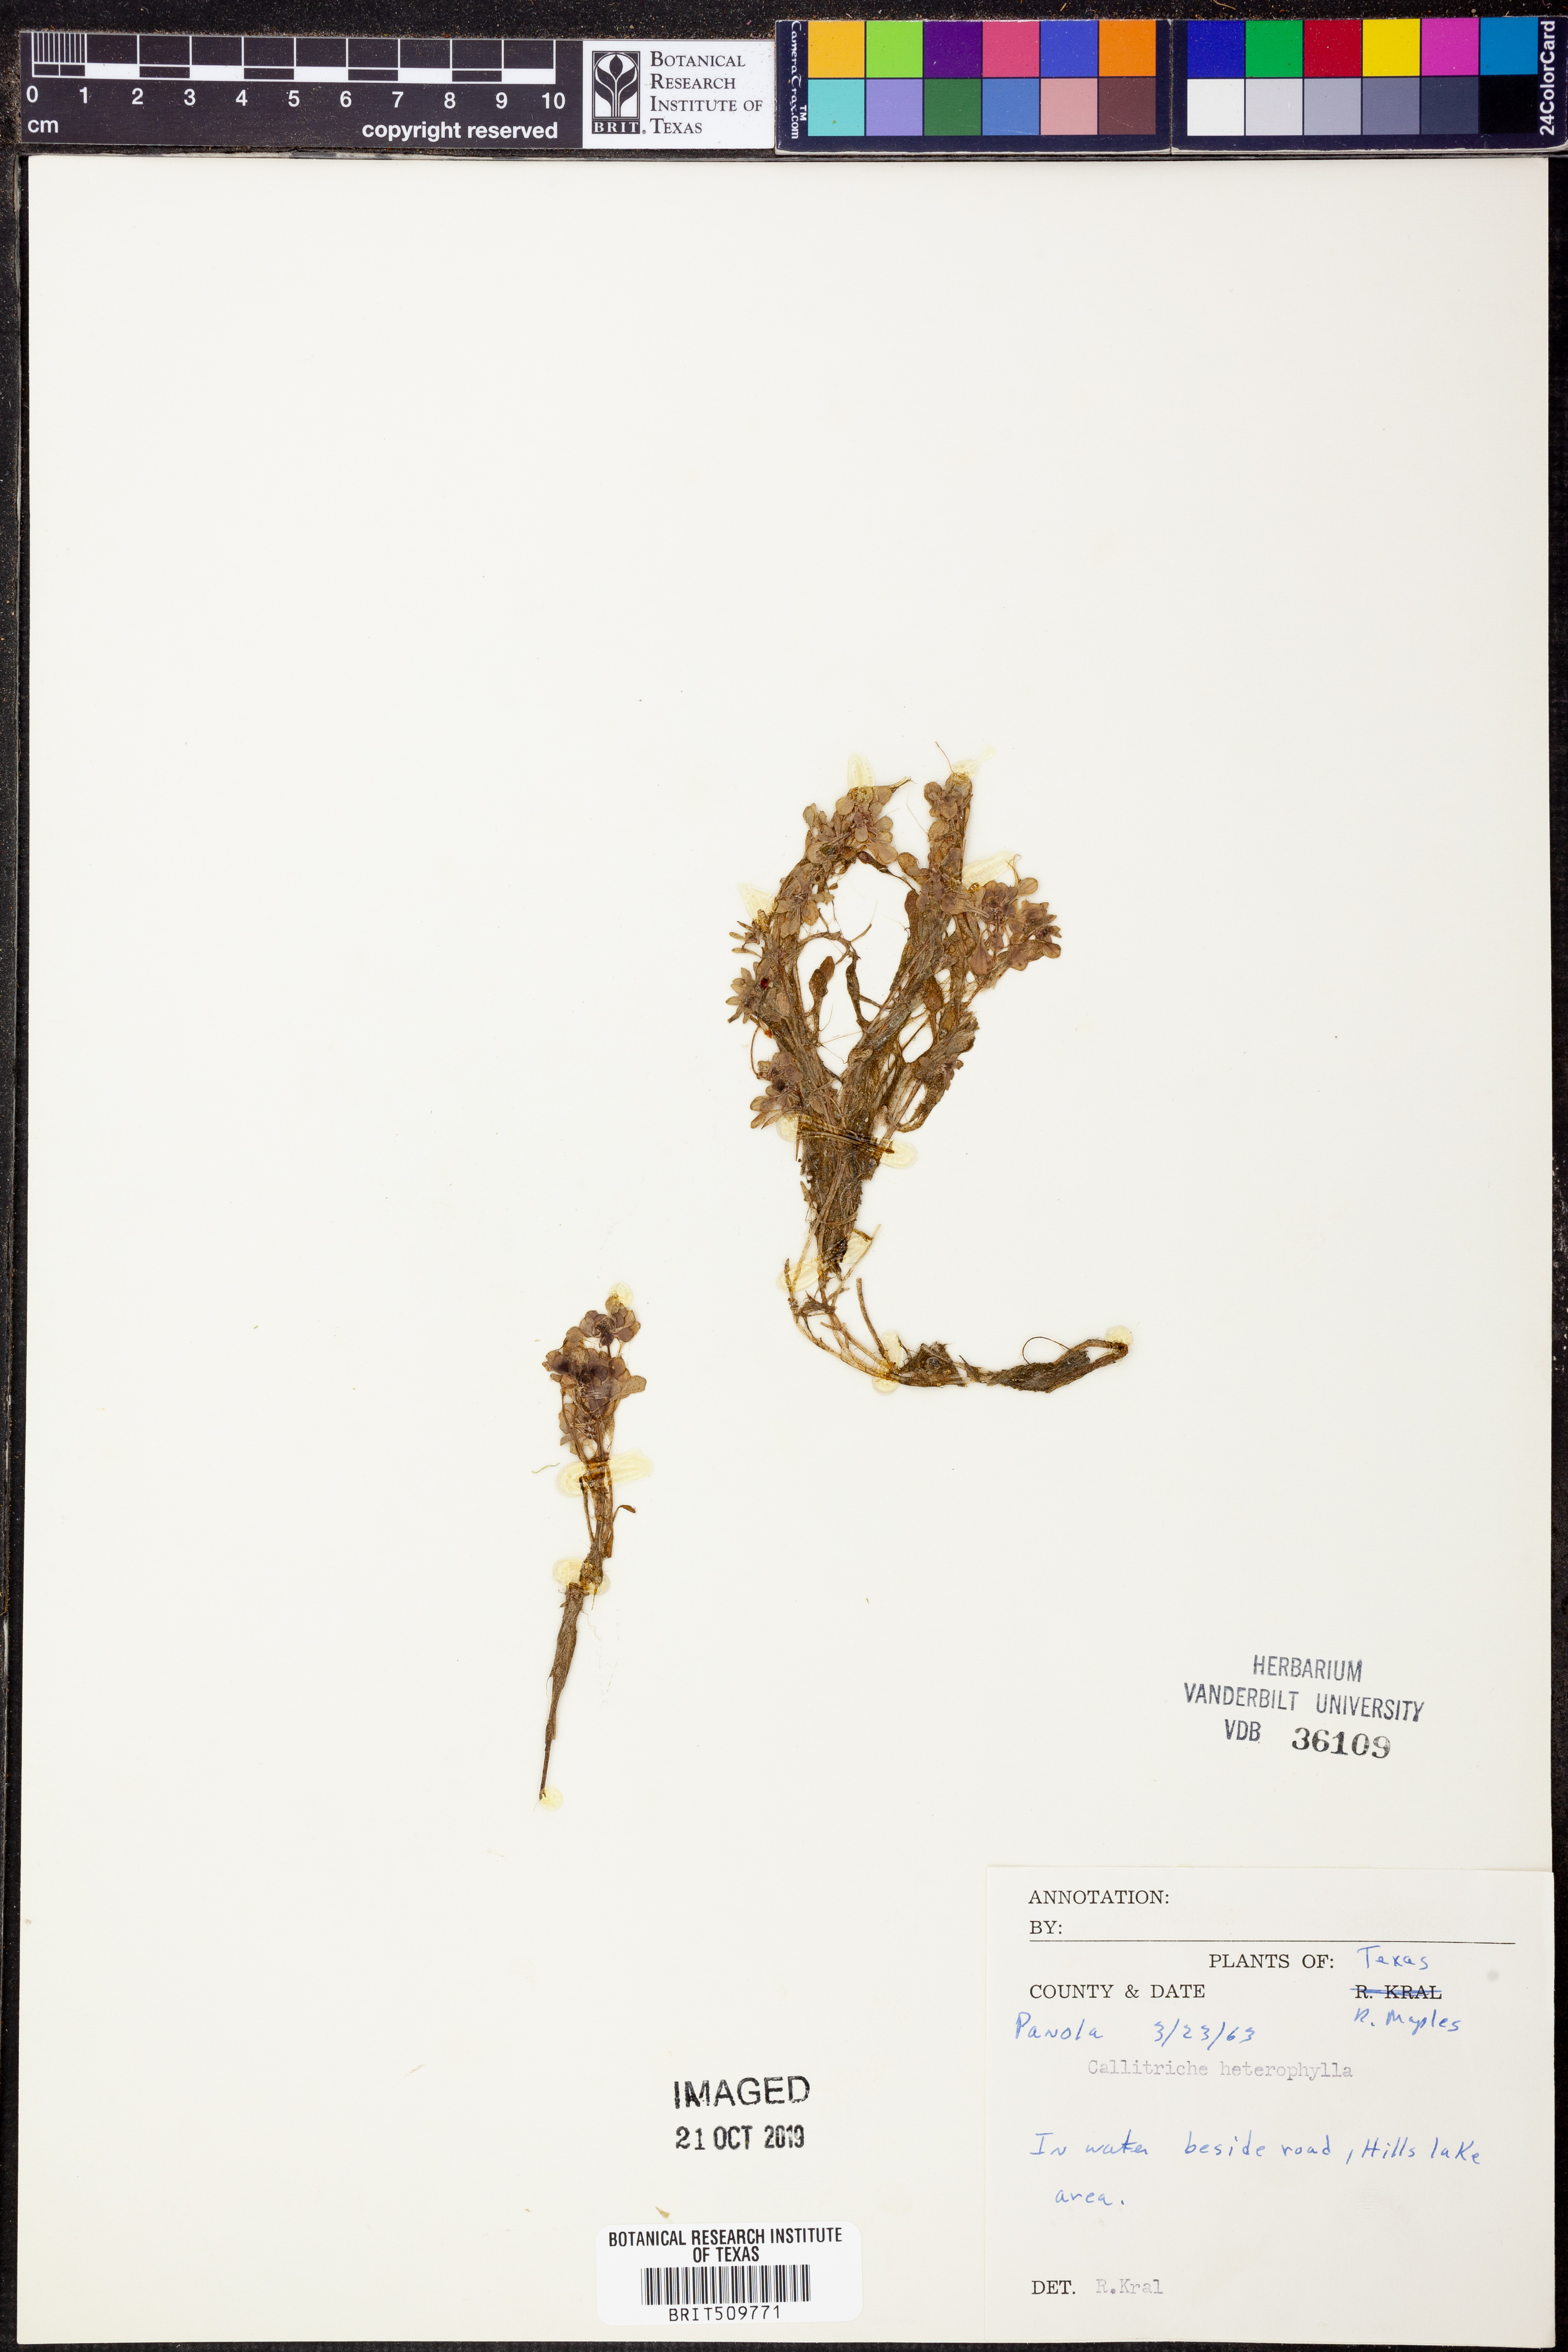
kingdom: Plantae
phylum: Tracheophyta
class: Magnoliopsida
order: Lamiales
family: Plantaginaceae
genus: Callitriche
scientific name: Callitriche heterophylla
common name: Two-headed water-starwort
